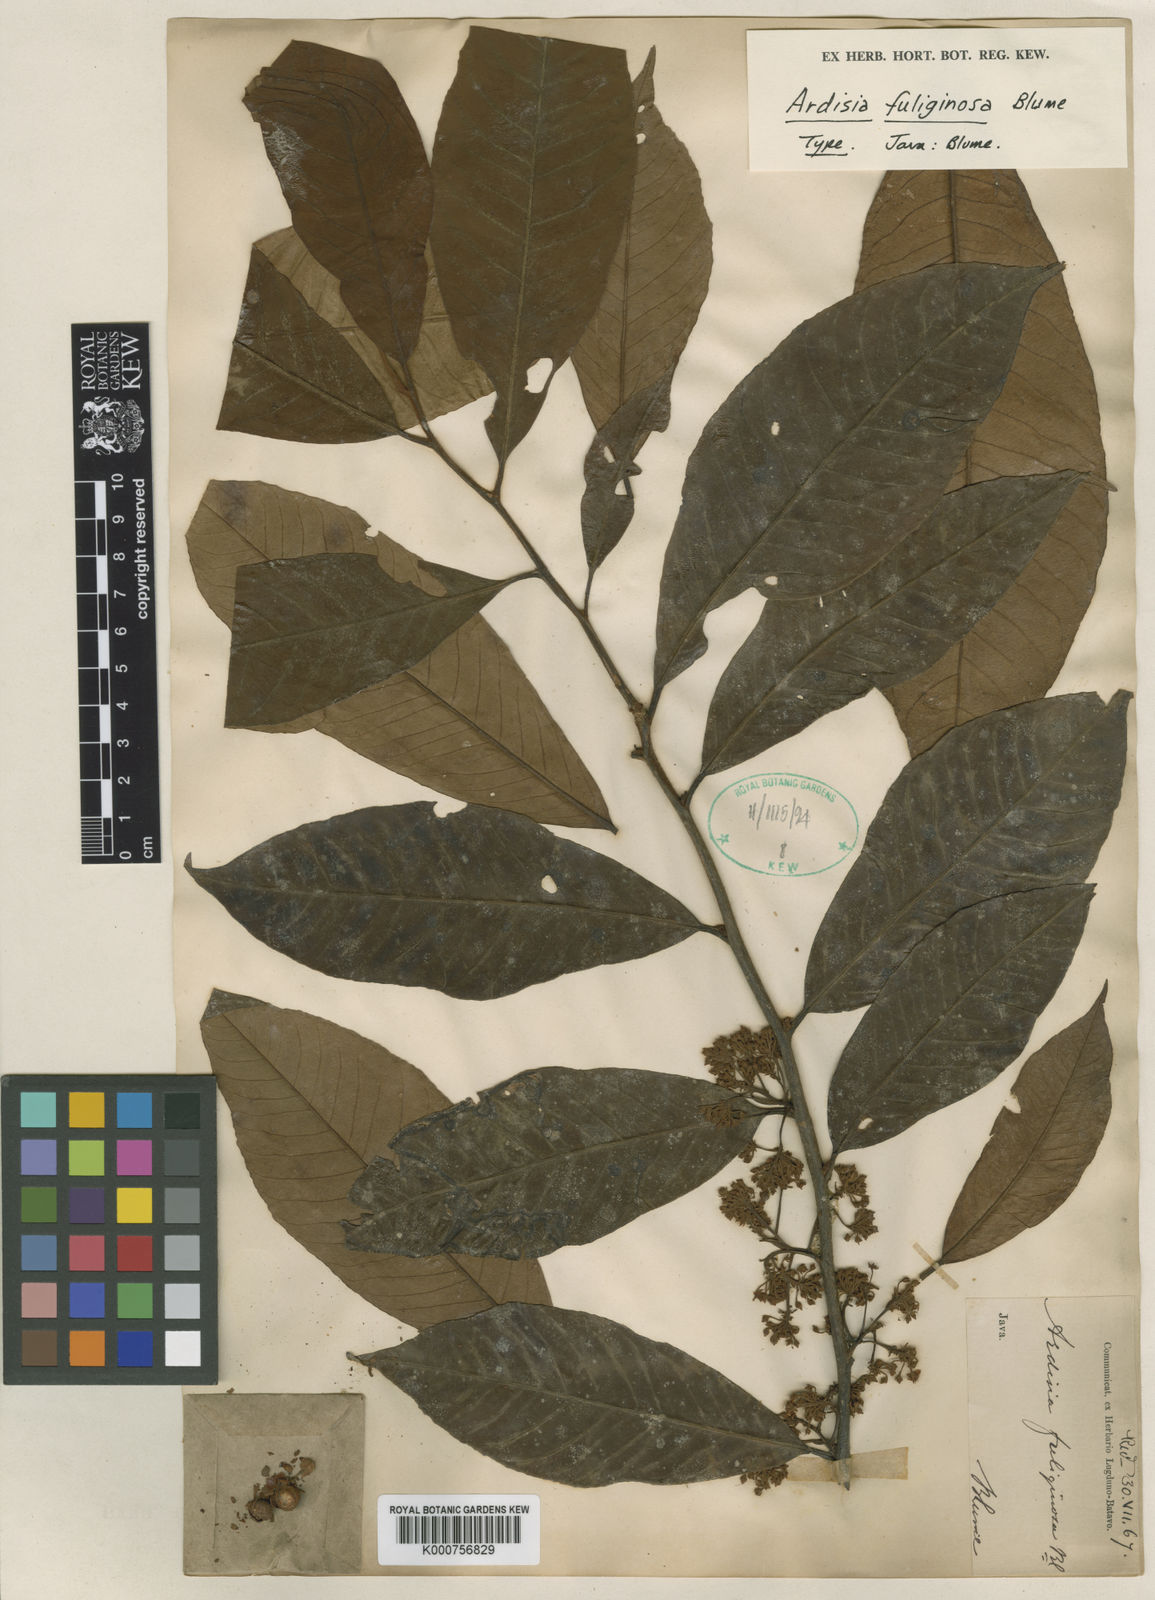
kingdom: Plantae
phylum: Tracheophyta
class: Magnoliopsida
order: Ericales
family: Primulaceae
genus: Ardisia
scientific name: Ardisia fuliginosa
